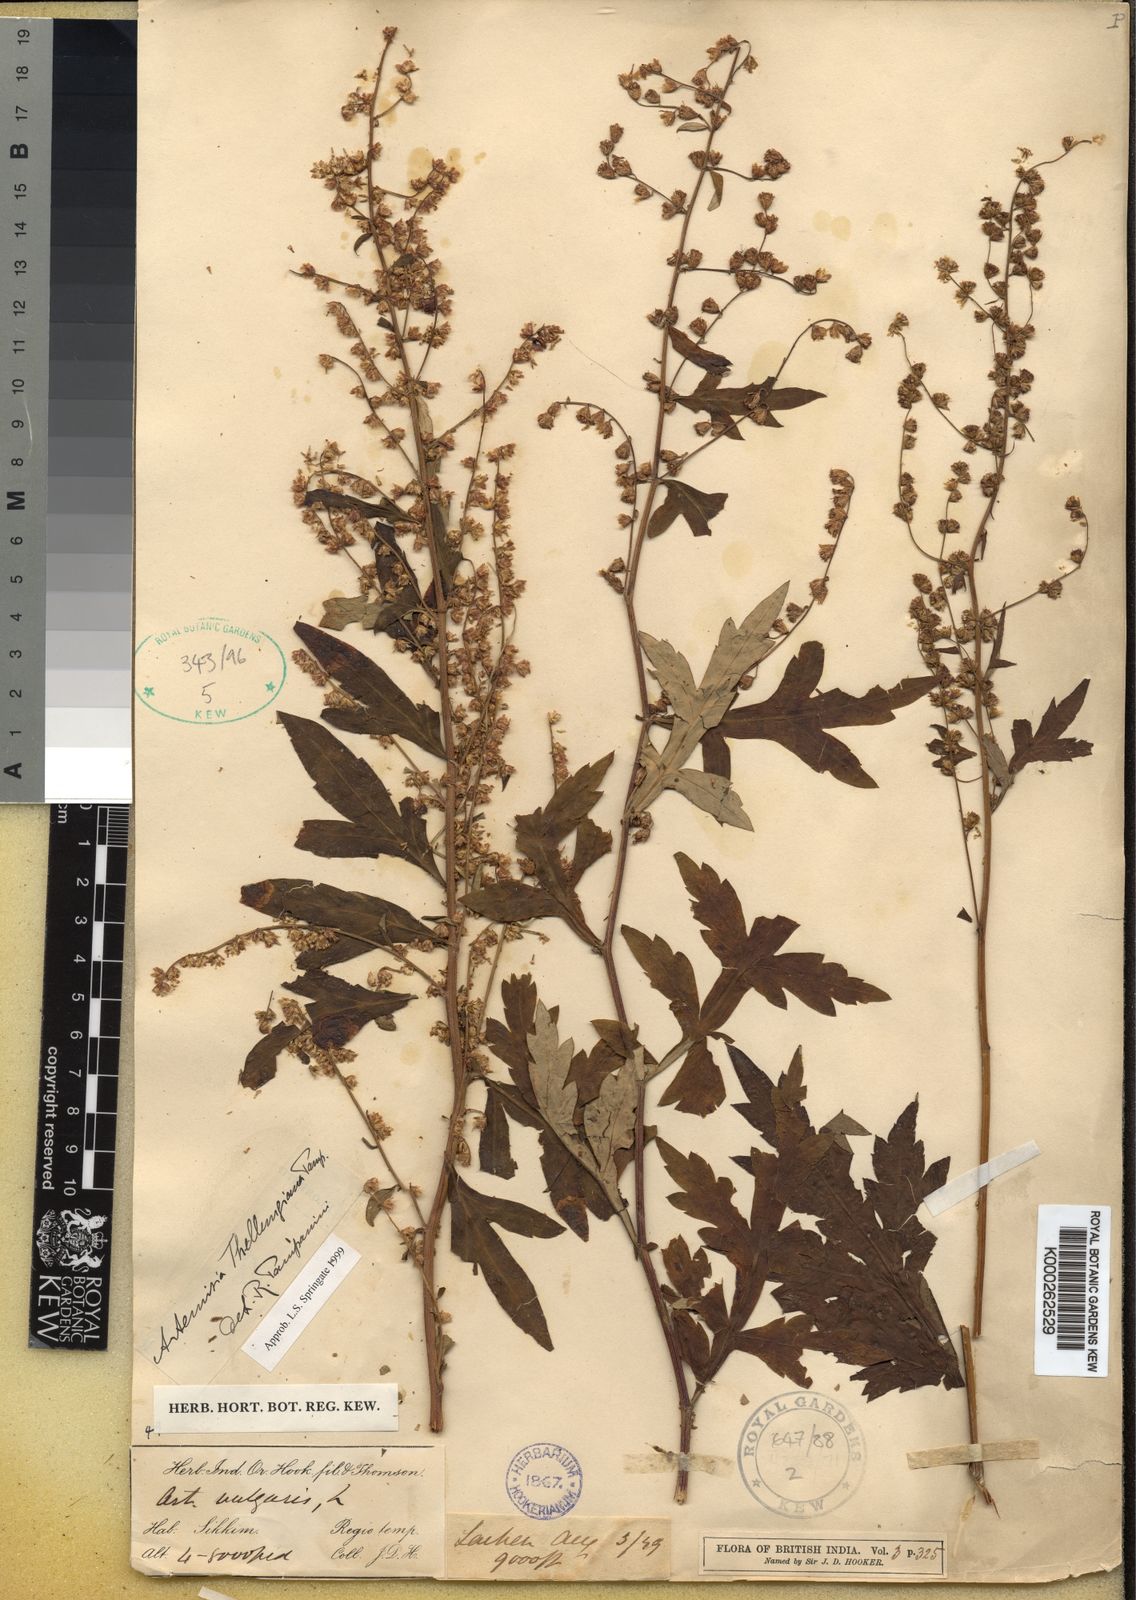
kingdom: Plantae
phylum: Tracheophyta
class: Magnoliopsida
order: Asterales
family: Asteraceae
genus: Artemisia
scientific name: Artemisia thellungiana
